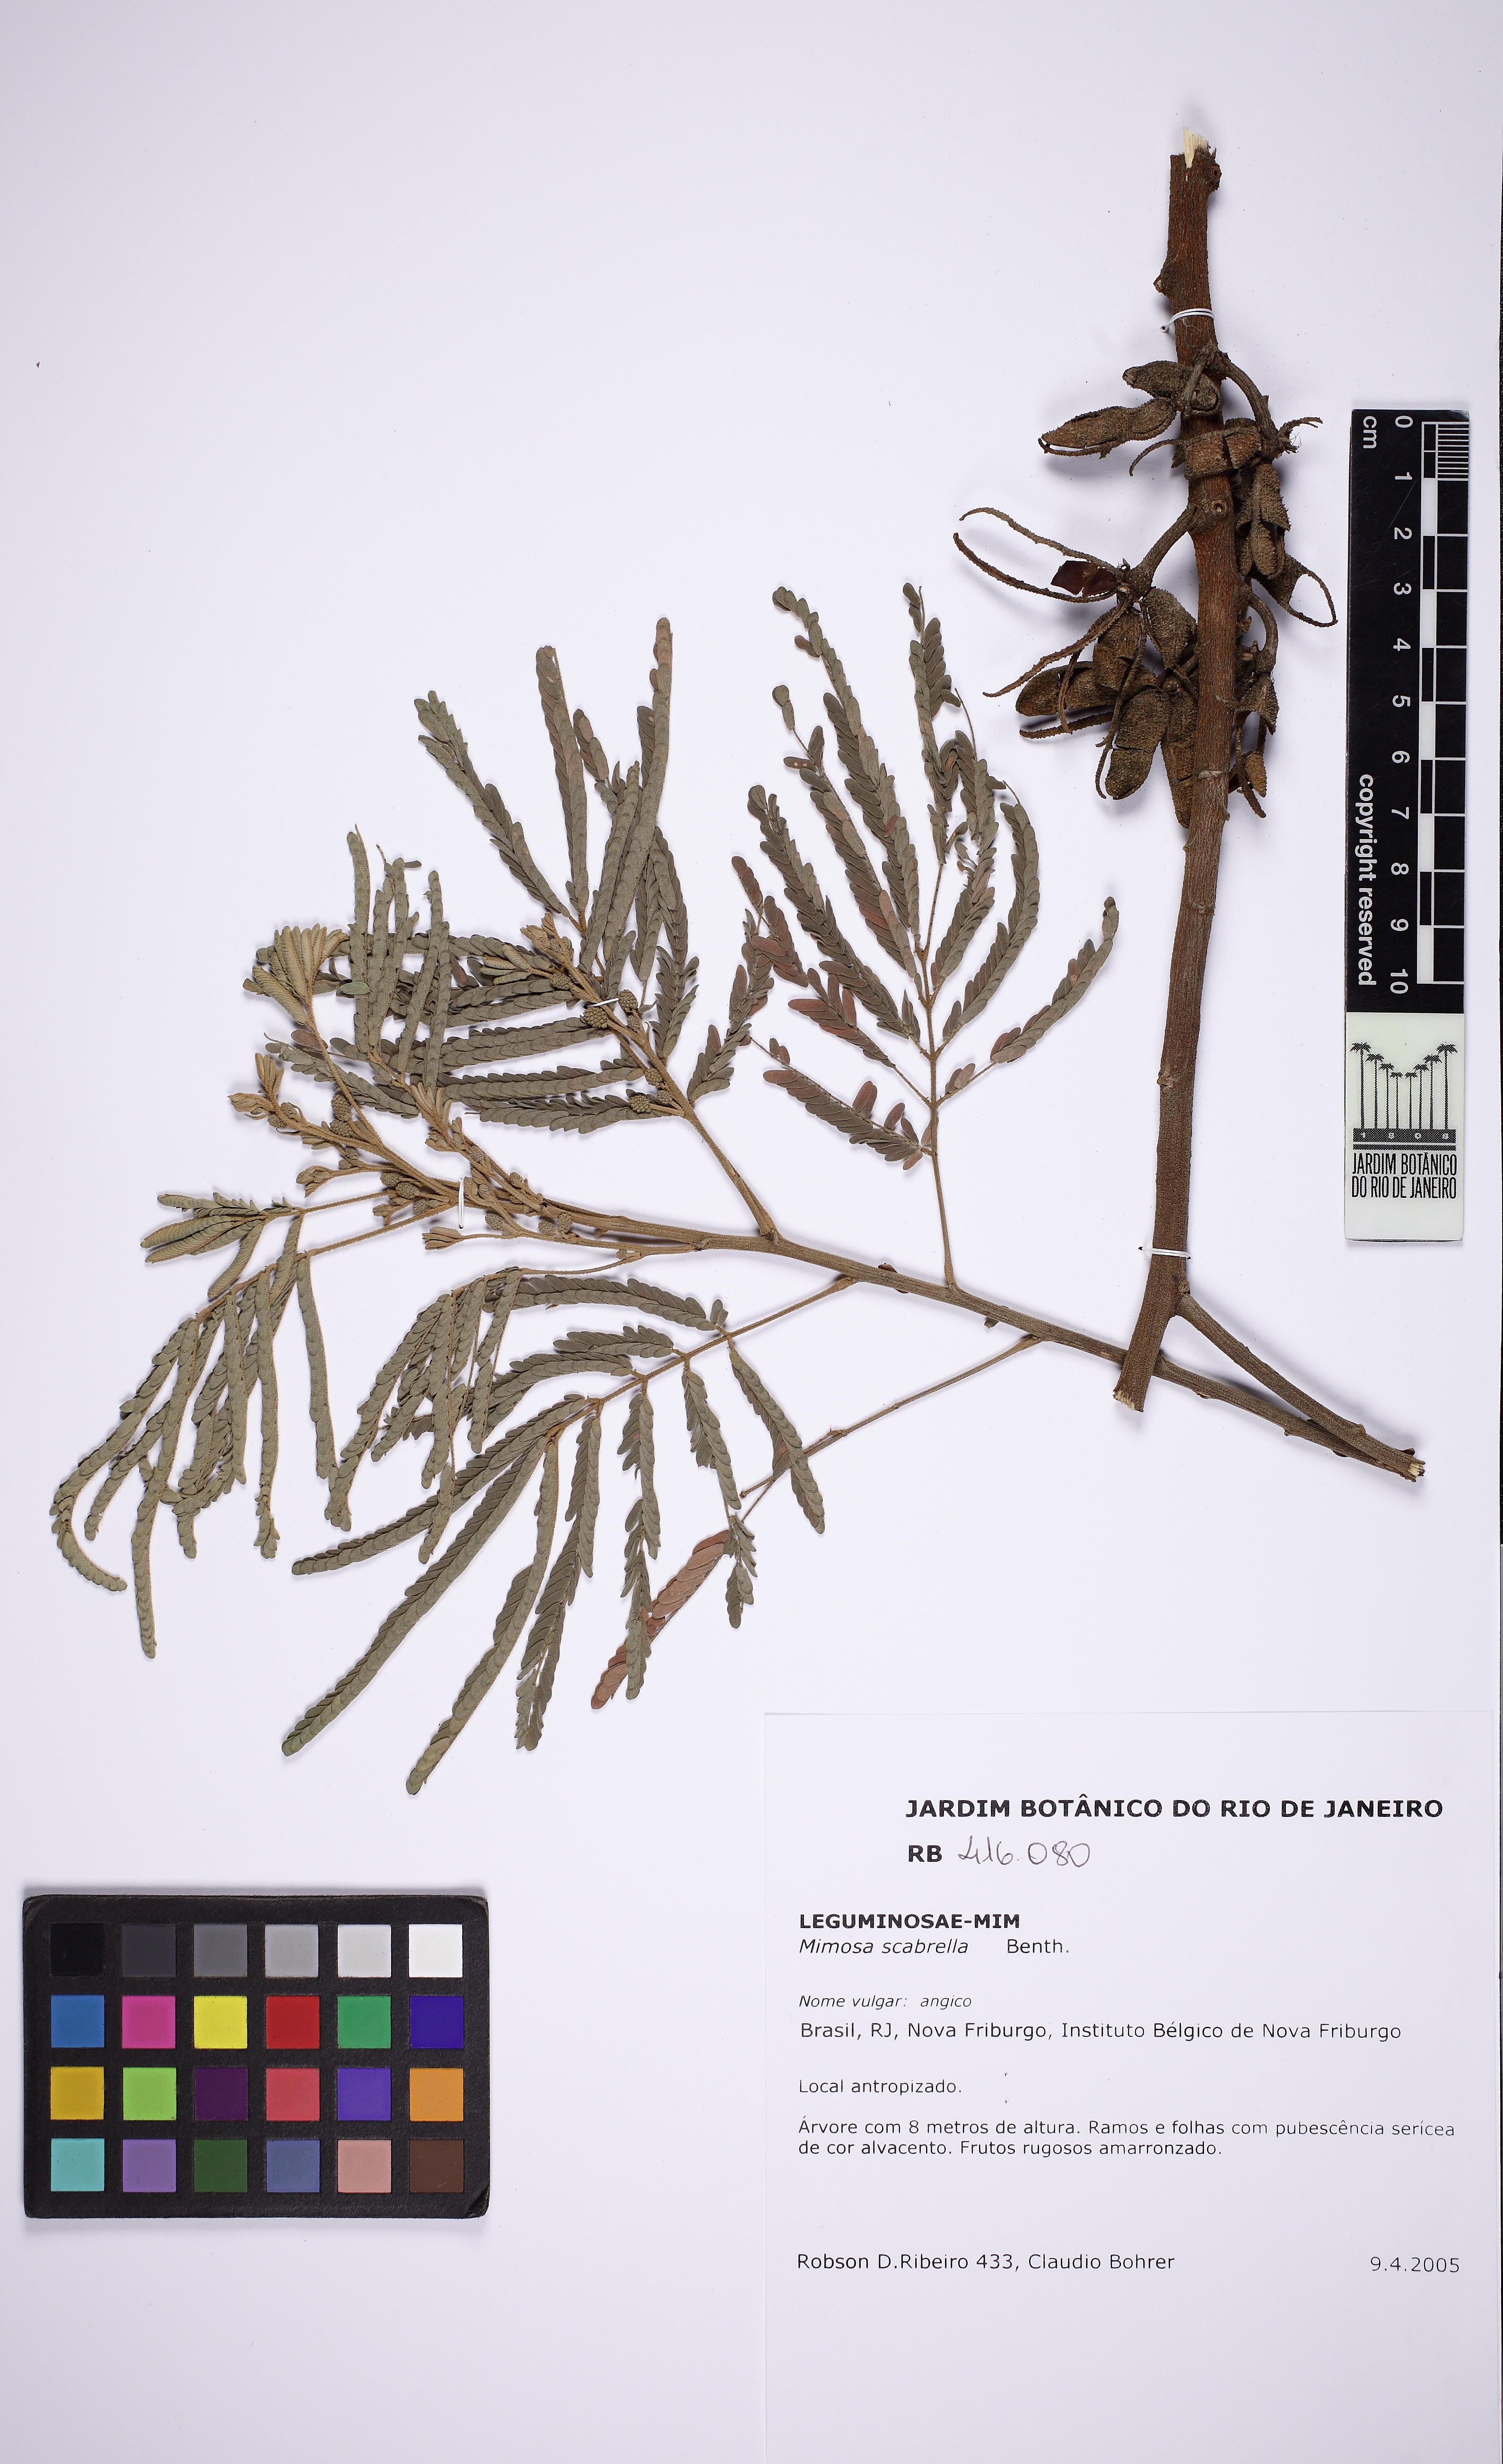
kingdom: Plantae
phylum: Tracheophyta
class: Magnoliopsida
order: Fabales
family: Fabaceae
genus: Mimosa
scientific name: Mimosa scabrella
